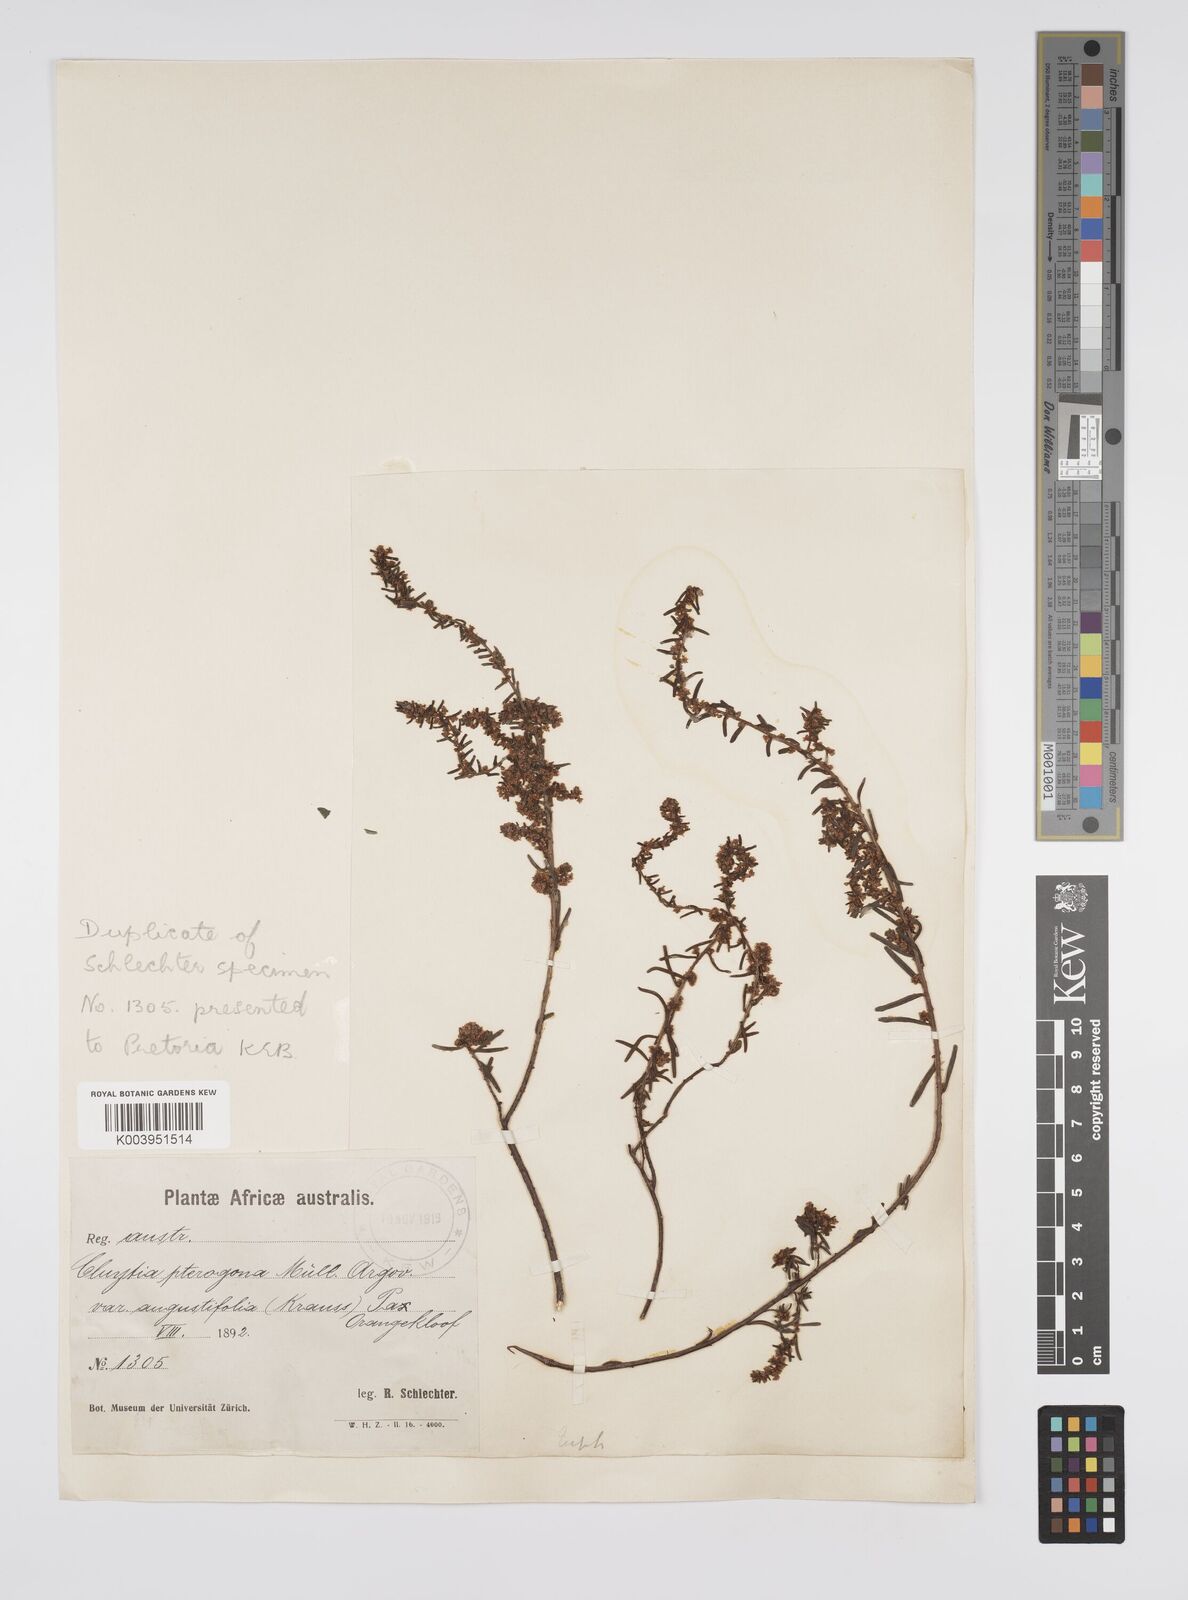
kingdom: Plantae
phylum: Tracheophyta
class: Magnoliopsida
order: Malpighiales
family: Peraceae
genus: Clutia
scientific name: Clutia pterogona
